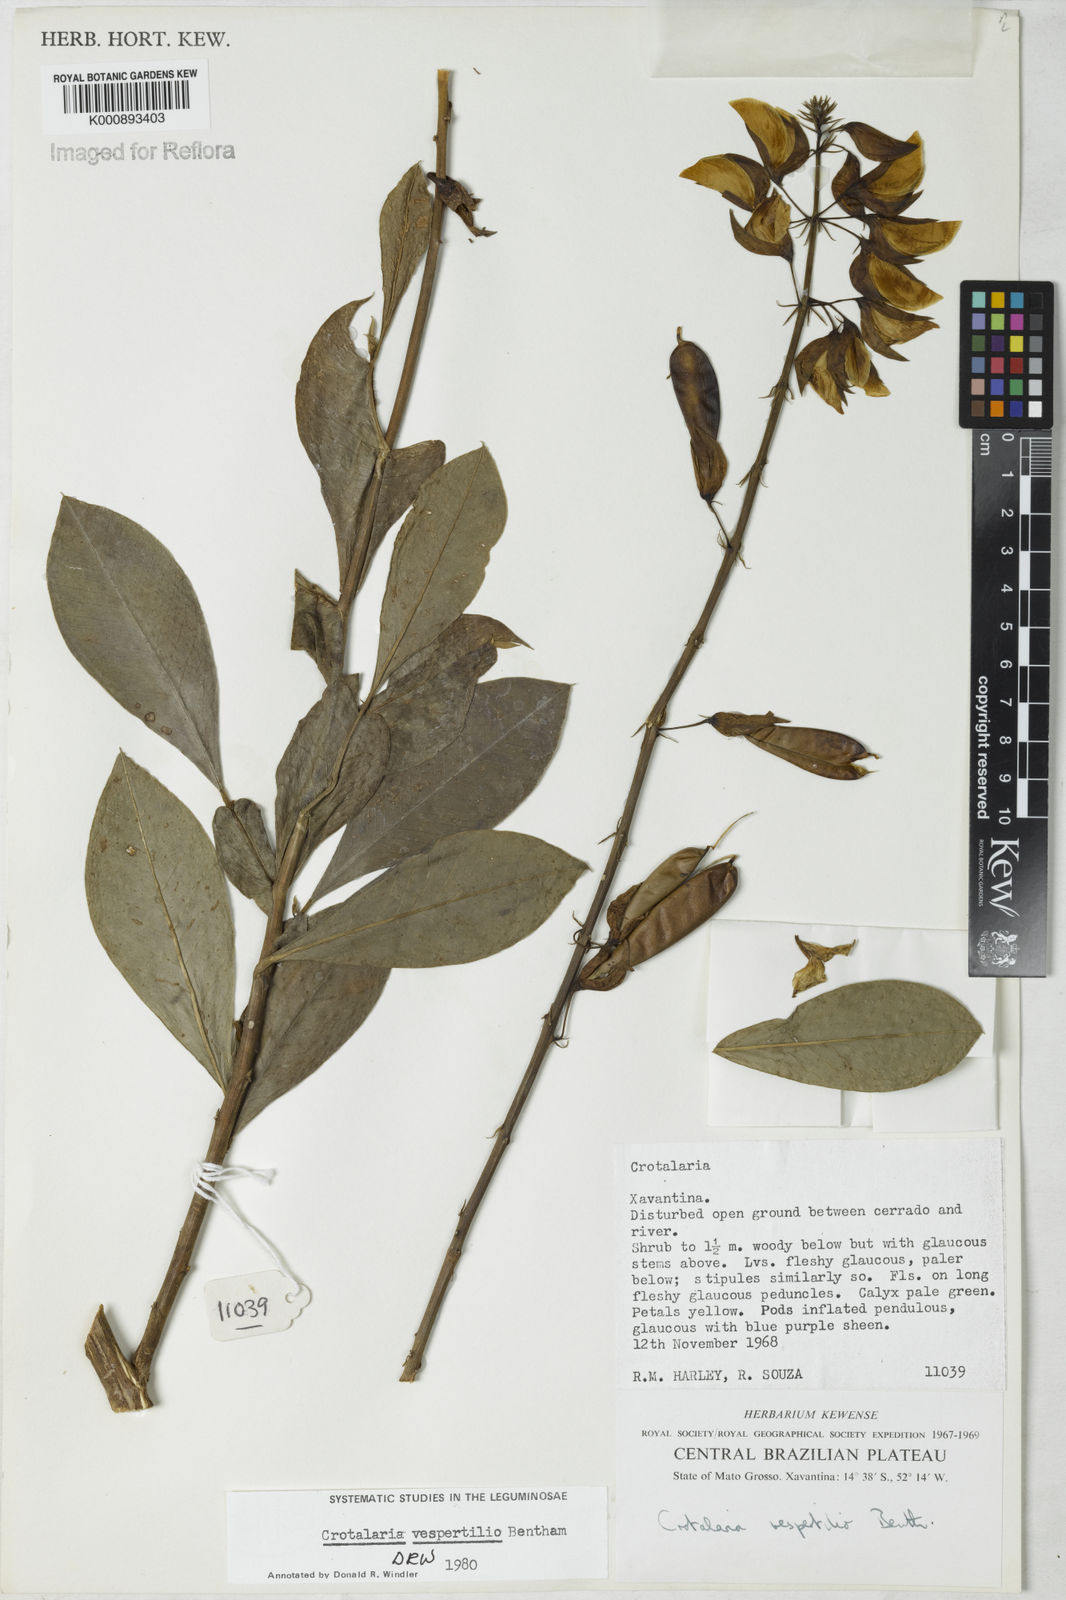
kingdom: Plantae
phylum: Tracheophyta
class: Magnoliopsida
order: Fabales
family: Fabaceae
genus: Crotalaria
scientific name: Crotalaria vespertilio
